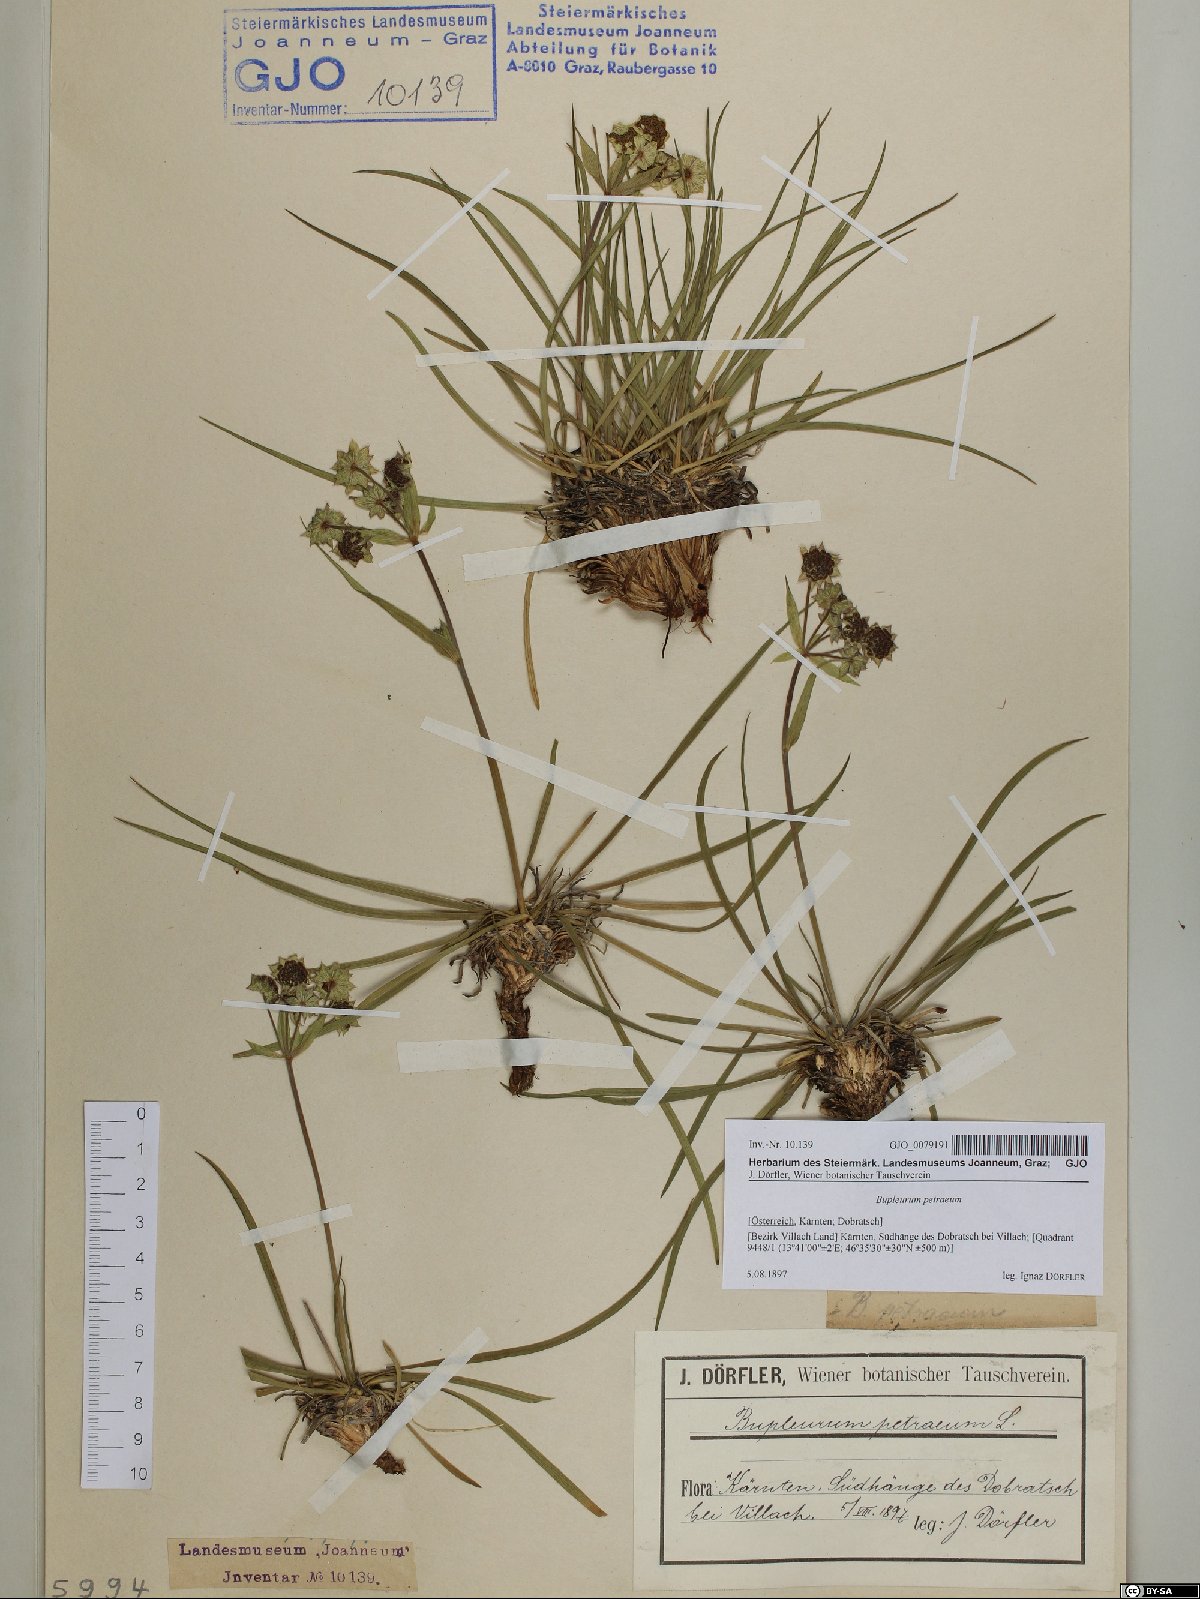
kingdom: Plantae
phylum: Tracheophyta
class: Magnoliopsida
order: Apiales
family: Apiaceae
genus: Bupleurum
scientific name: Bupleurum petraeum
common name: Rock hare's-ear
